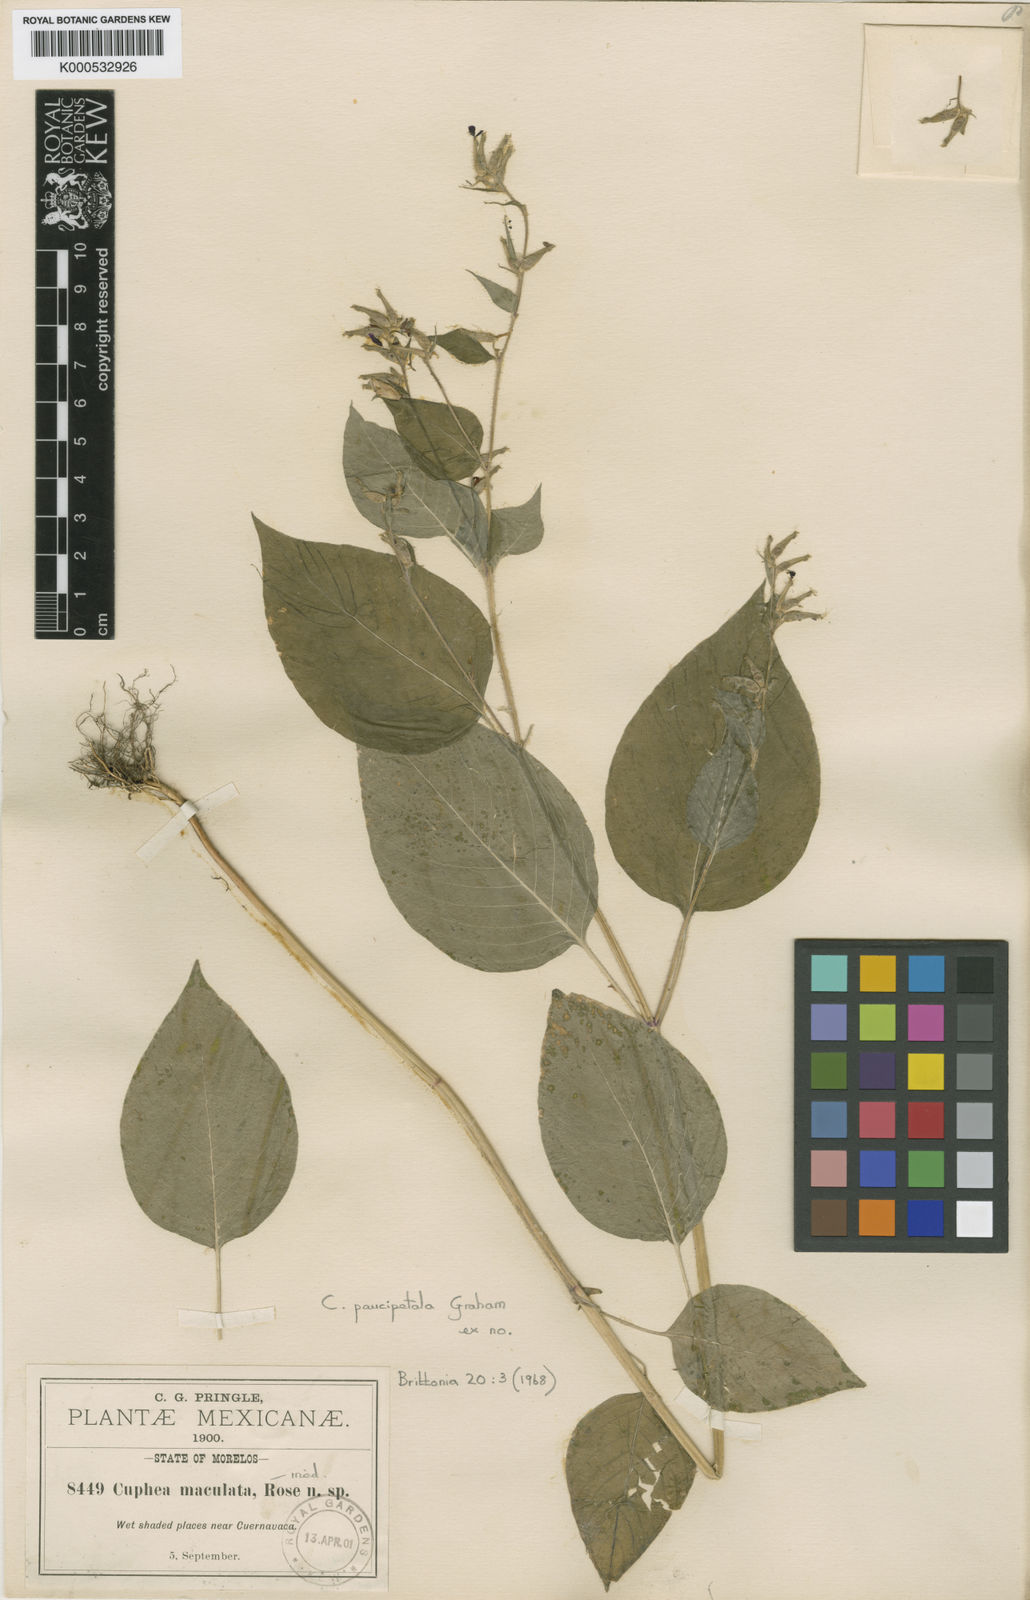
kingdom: Plantae
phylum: Tracheophyta
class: Magnoliopsida
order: Myrtales
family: Lythraceae
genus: Cuphea
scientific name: Cuphea paucipetala
